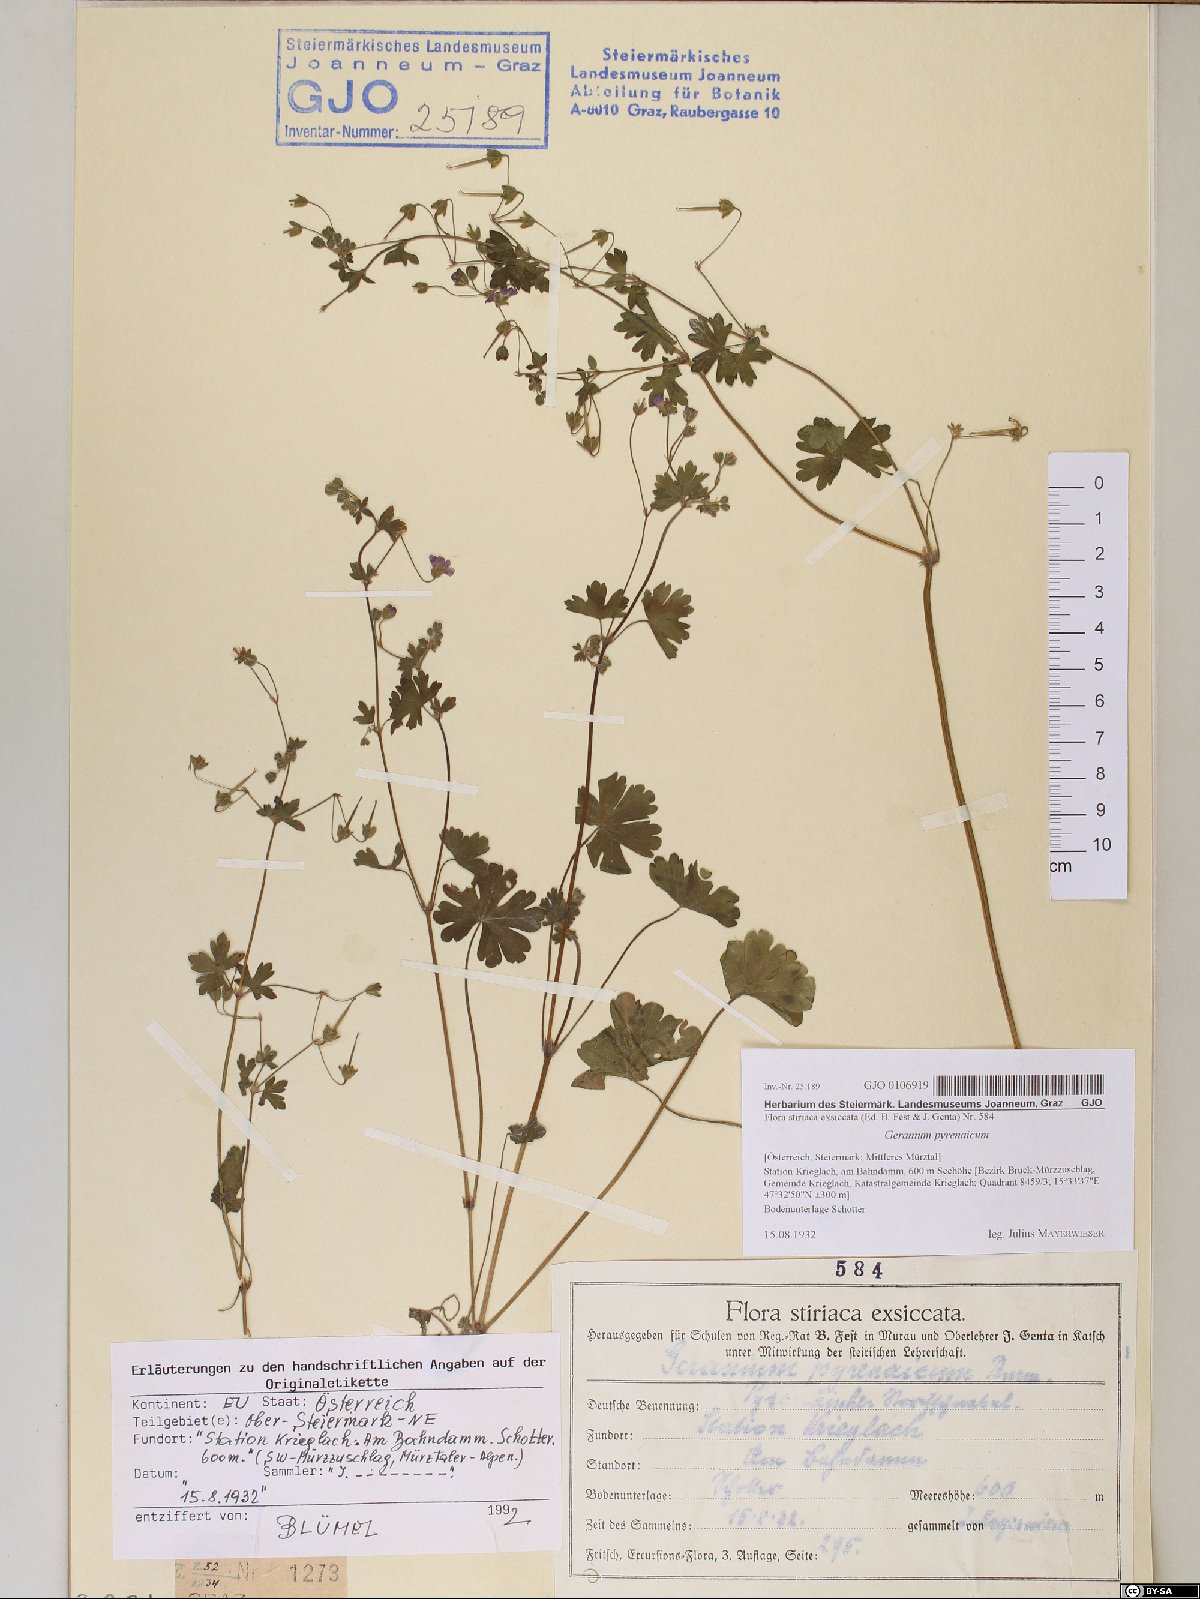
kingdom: Plantae
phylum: Tracheophyta
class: Magnoliopsida
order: Geraniales
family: Geraniaceae
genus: Geranium
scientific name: Geranium pyrenaicum
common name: Hedgerow crane's-bill
